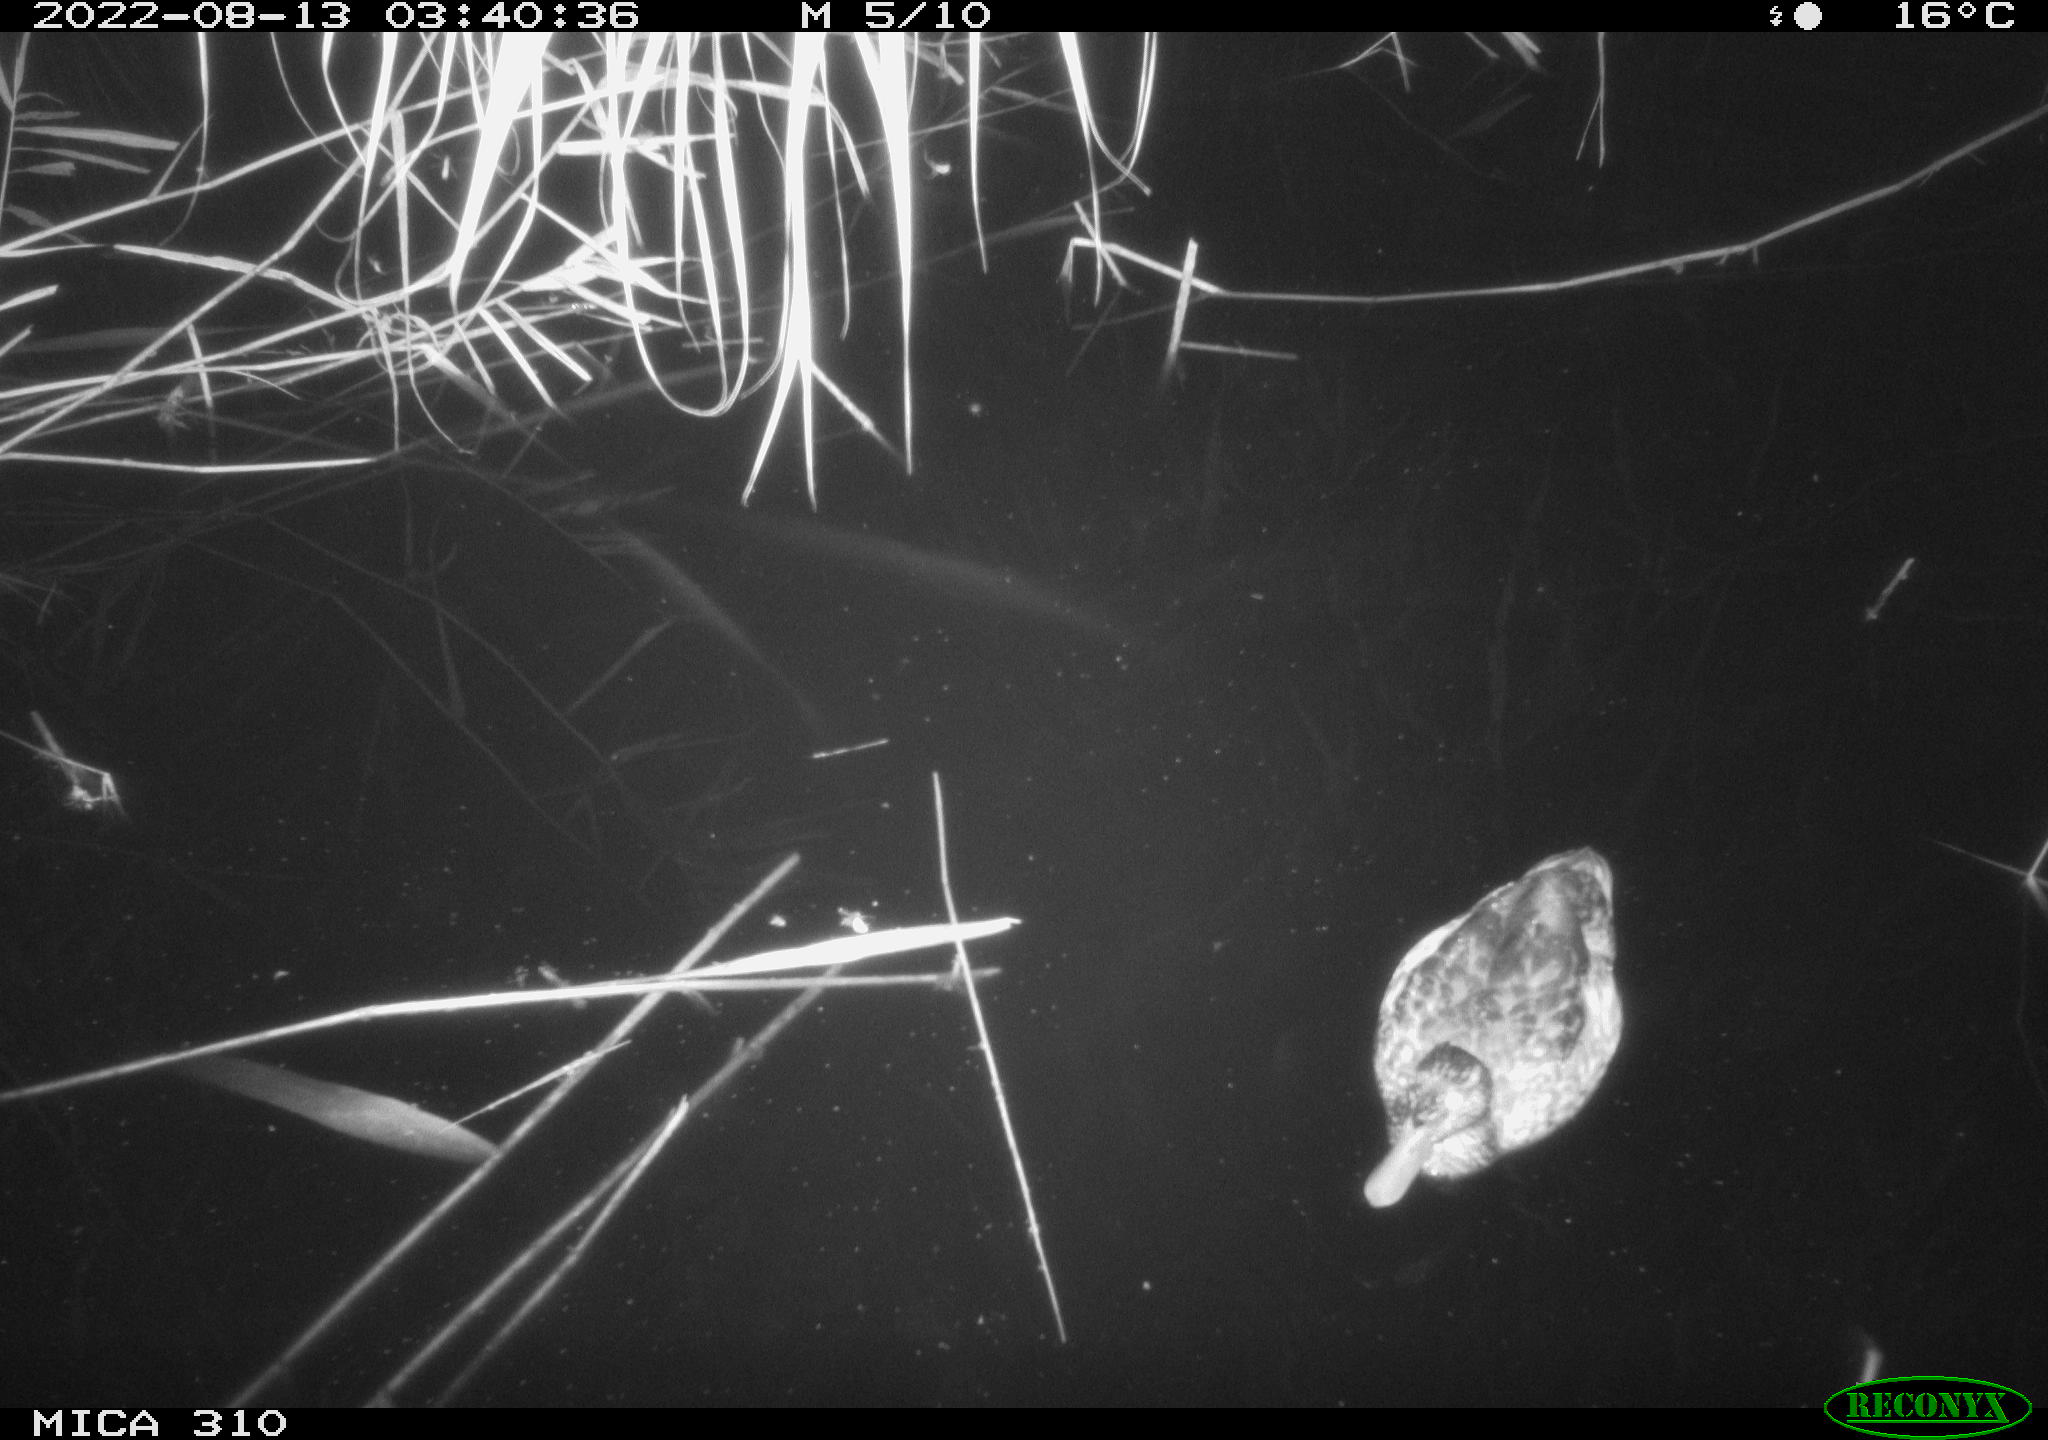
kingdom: Animalia
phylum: Chordata
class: Aves
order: Anseriformes
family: Anatidae
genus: Anas
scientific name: Anas platyrhynchos
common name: Mallard
